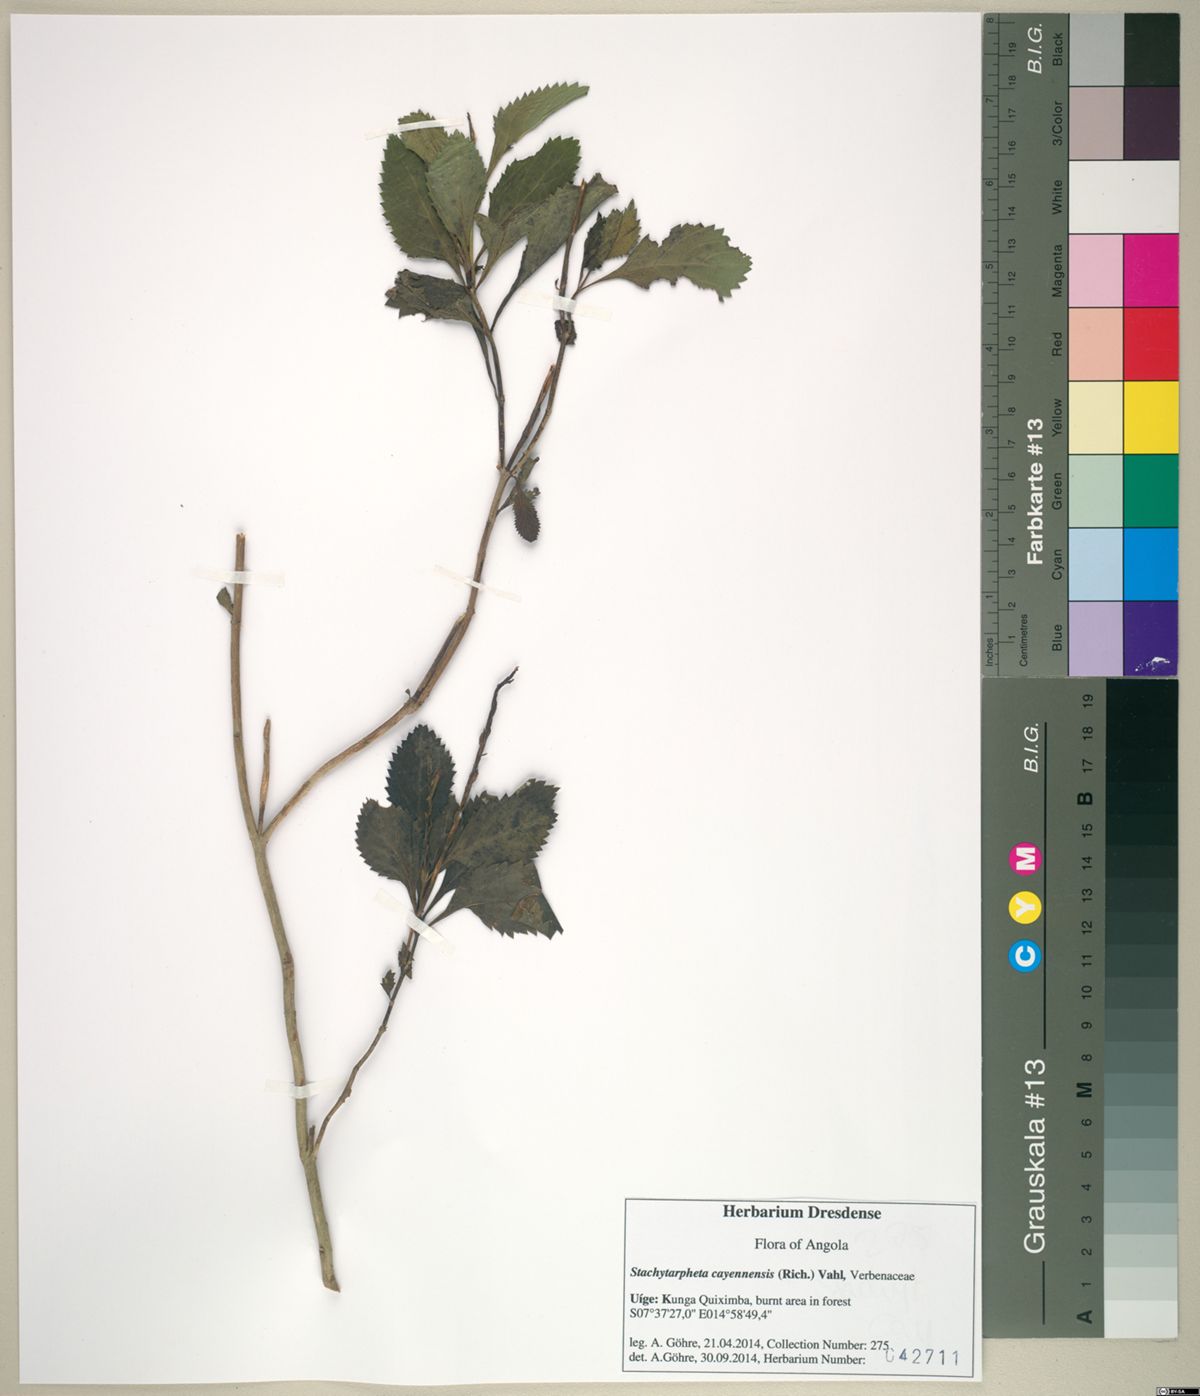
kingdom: Plantae
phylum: Tracheophyta
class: Magnoliopsida
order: Lamiales
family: Verbenaceae
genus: Stachytarpheta
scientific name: Stachytarpheta cayennensis
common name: Cayenne porterweed
